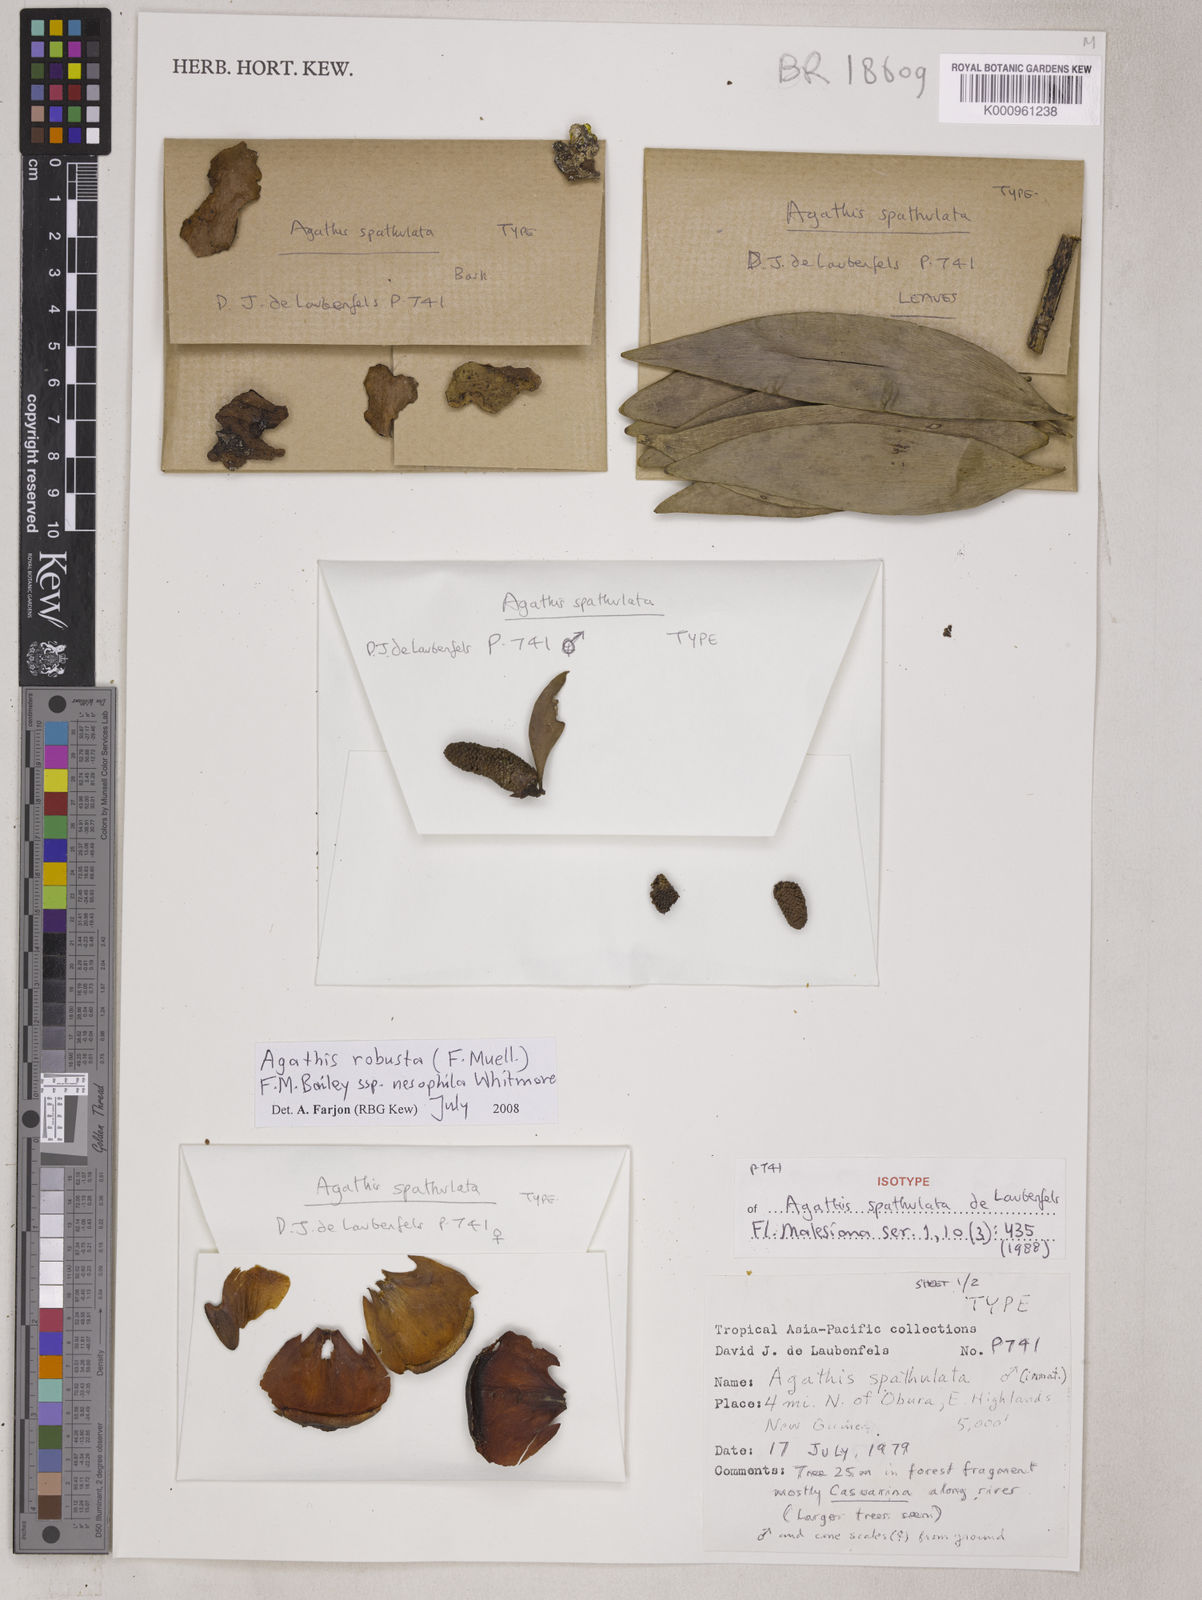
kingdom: Plantae
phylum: Tracheophyta
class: Pinopsida
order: Pinales
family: Araucariaceae
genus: Agathis
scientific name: Agathis robusta
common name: Australian-kauri
